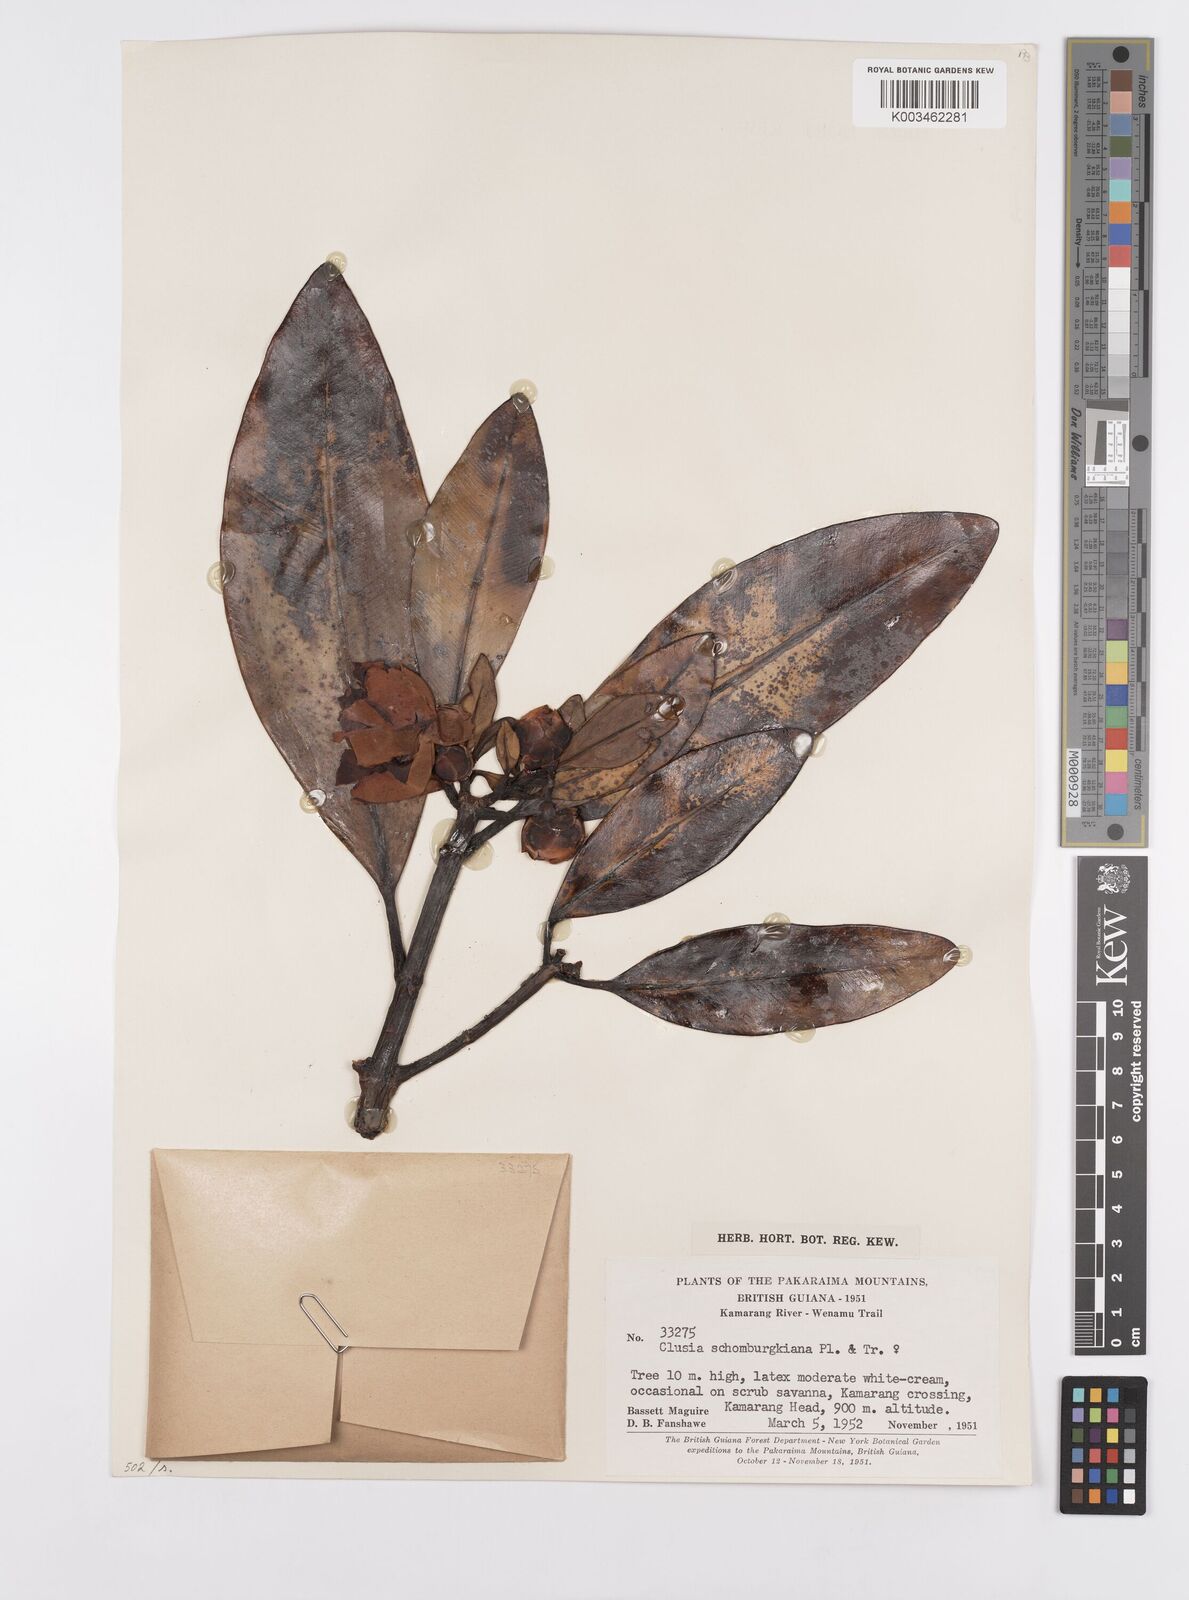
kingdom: Plantae
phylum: Tracheophyta
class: Magnoliopsida
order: Malpighiales
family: Clusiaceae
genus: Clusia
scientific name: Clusia schomburgkiana
